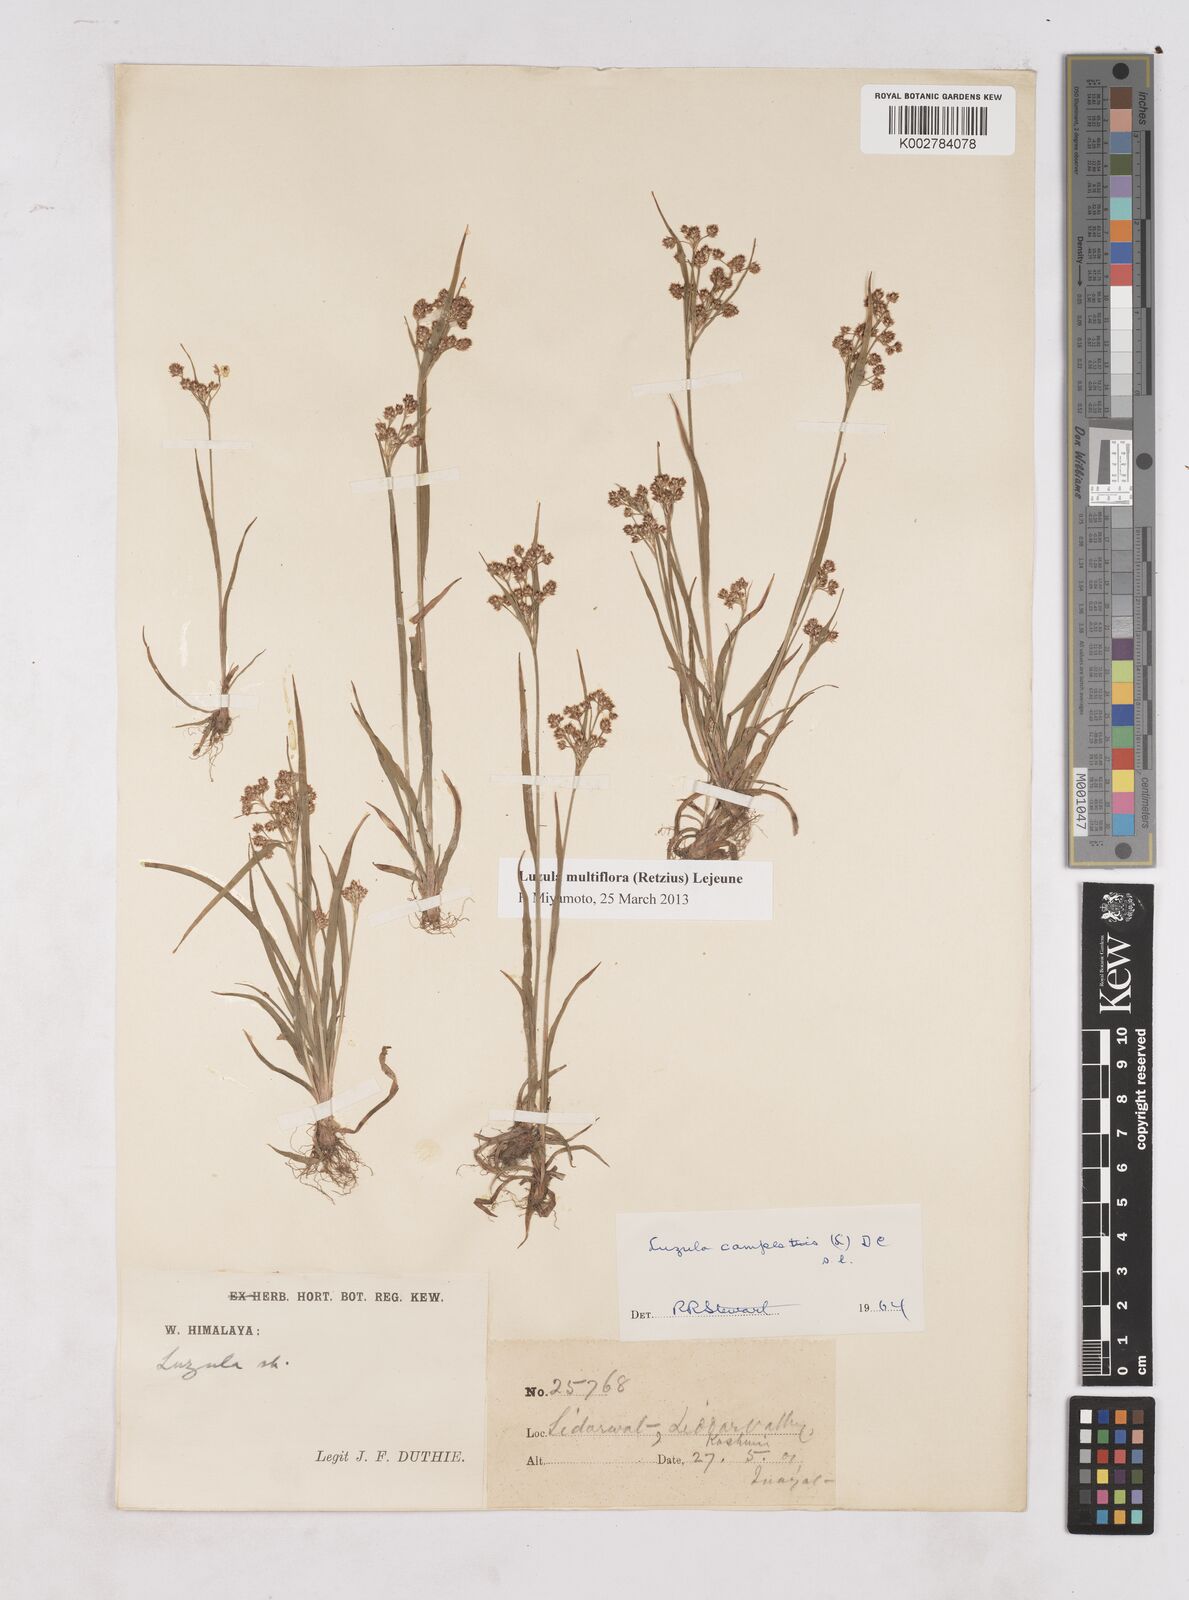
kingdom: Plantae
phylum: Tracheophyta
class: Liliopsida
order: Poales
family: Juncaceae
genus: Luzula
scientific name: Luzula campestris
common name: Field wood-rush
